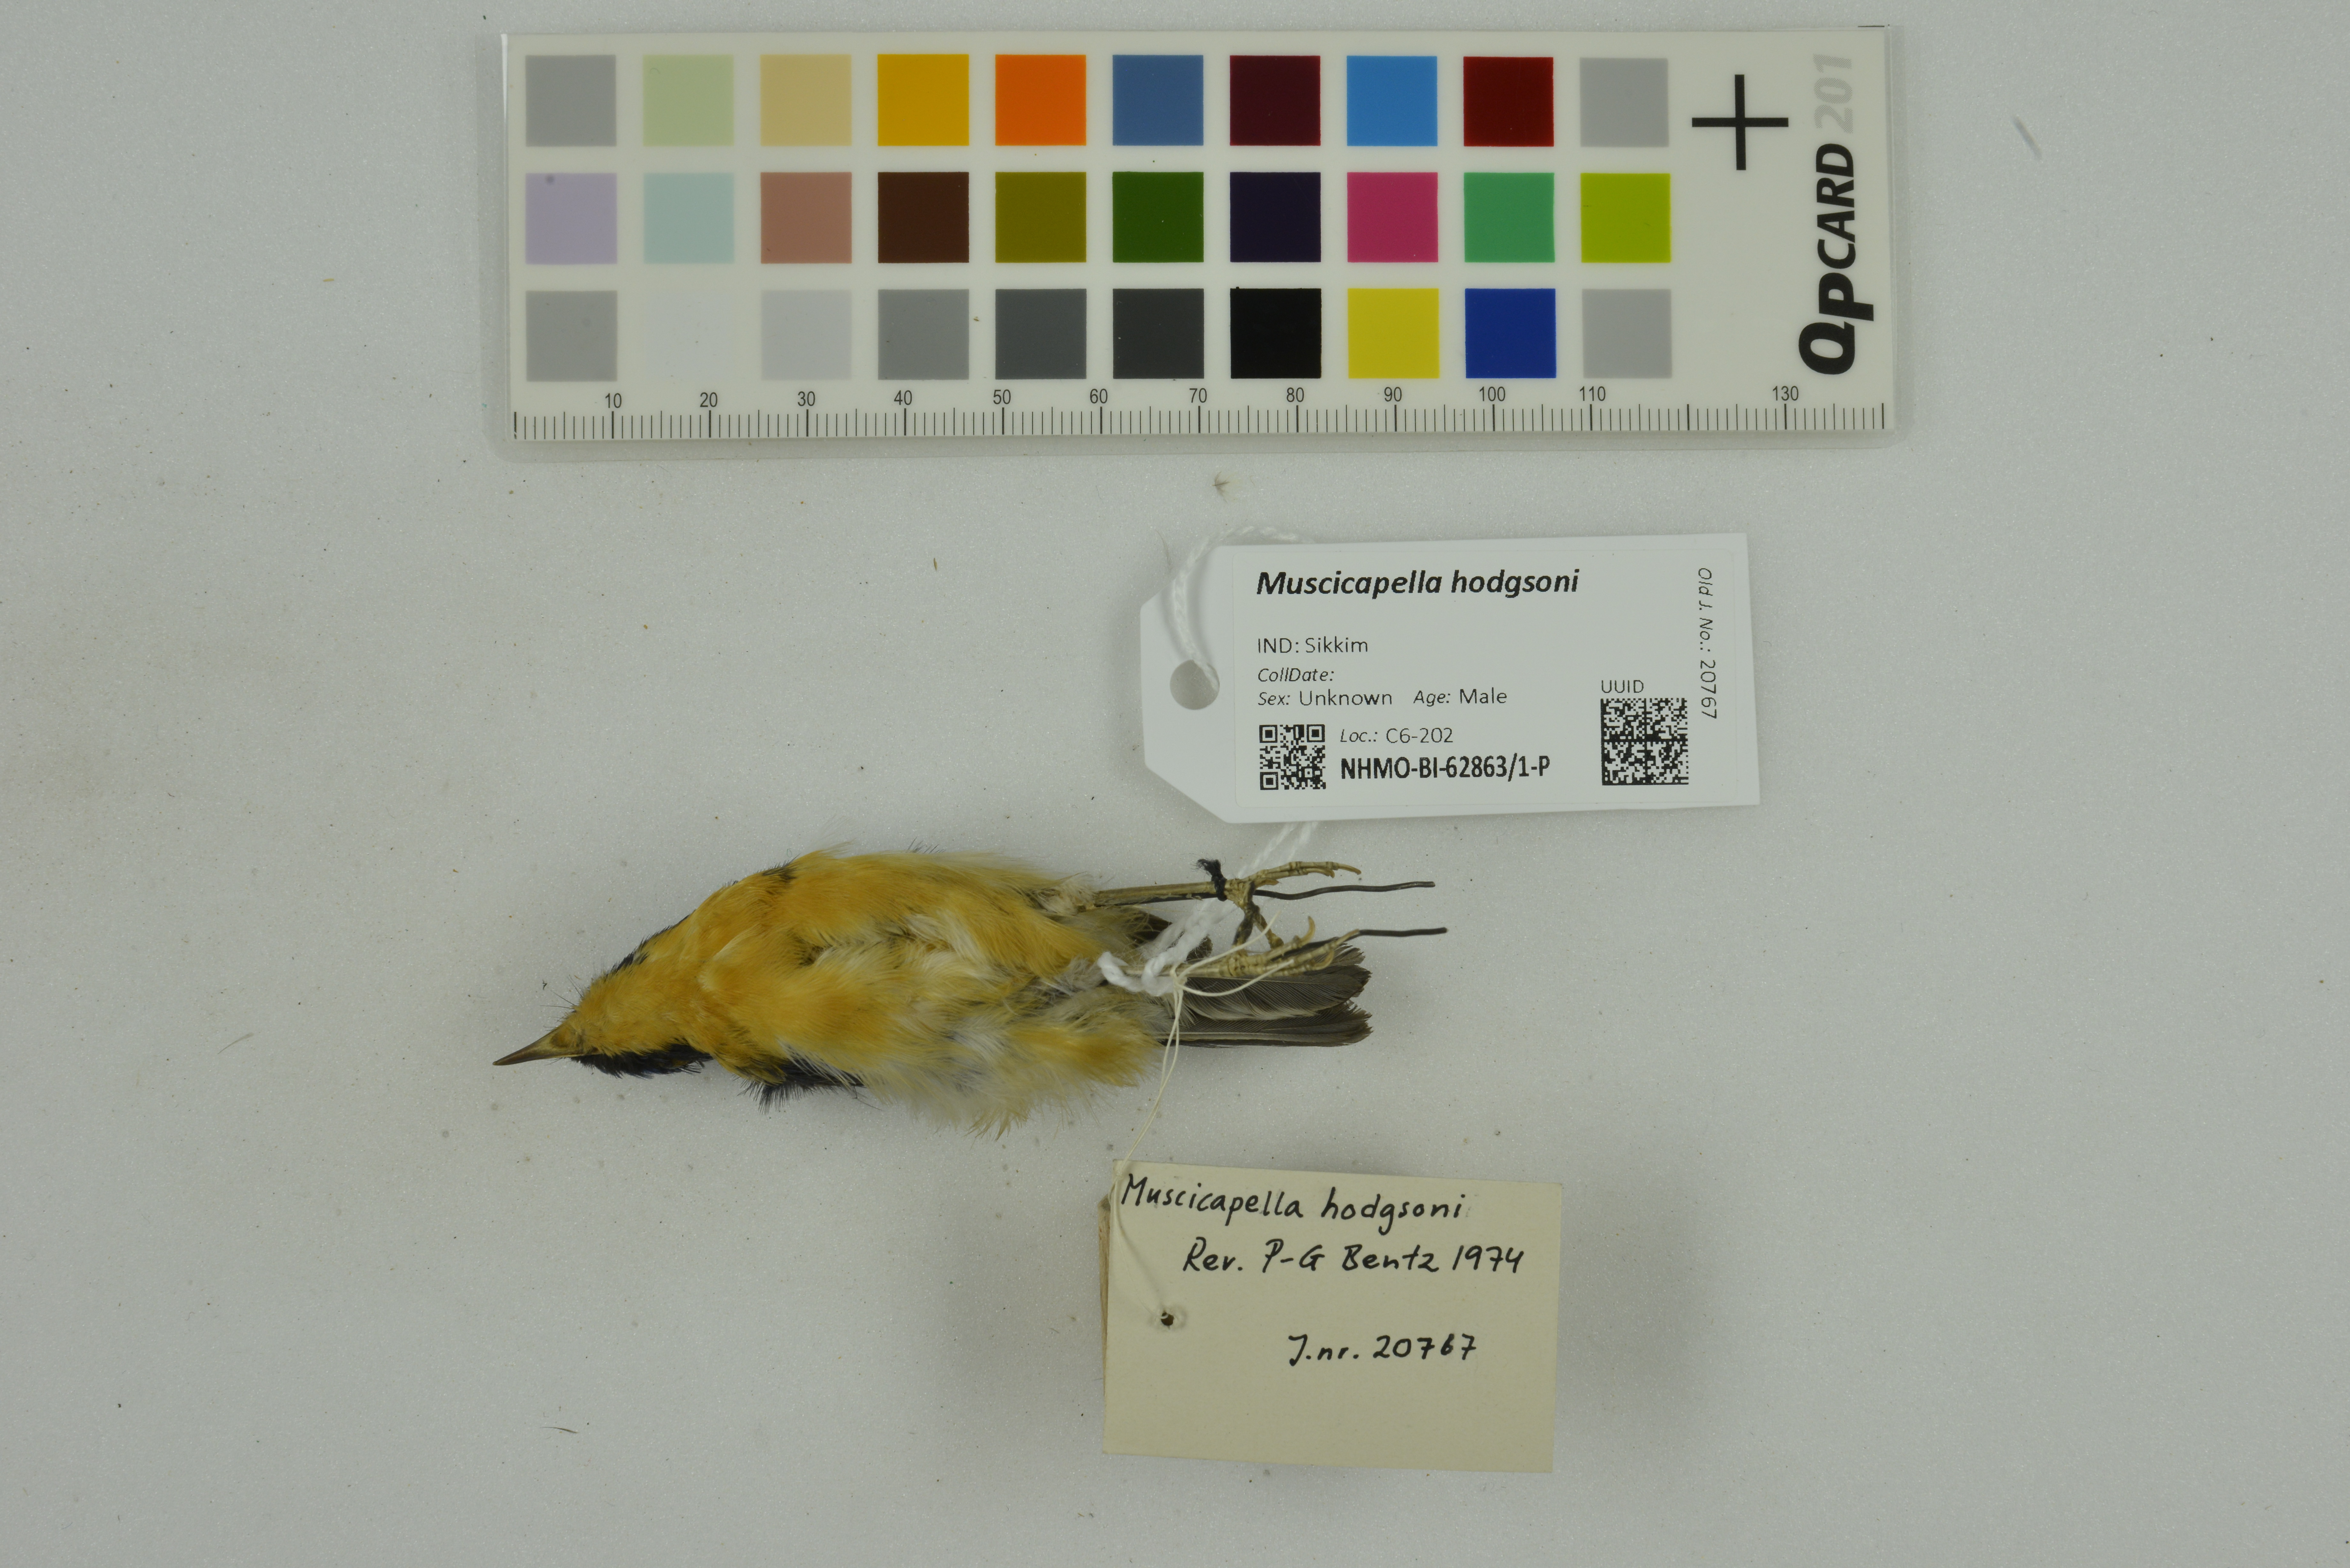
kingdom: Animalia
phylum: Chordata
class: Aves
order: Passeriformes
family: Muscicapidae
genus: Ficedula
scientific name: Ficedula hodgsoni
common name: Pygmy flycatcher
